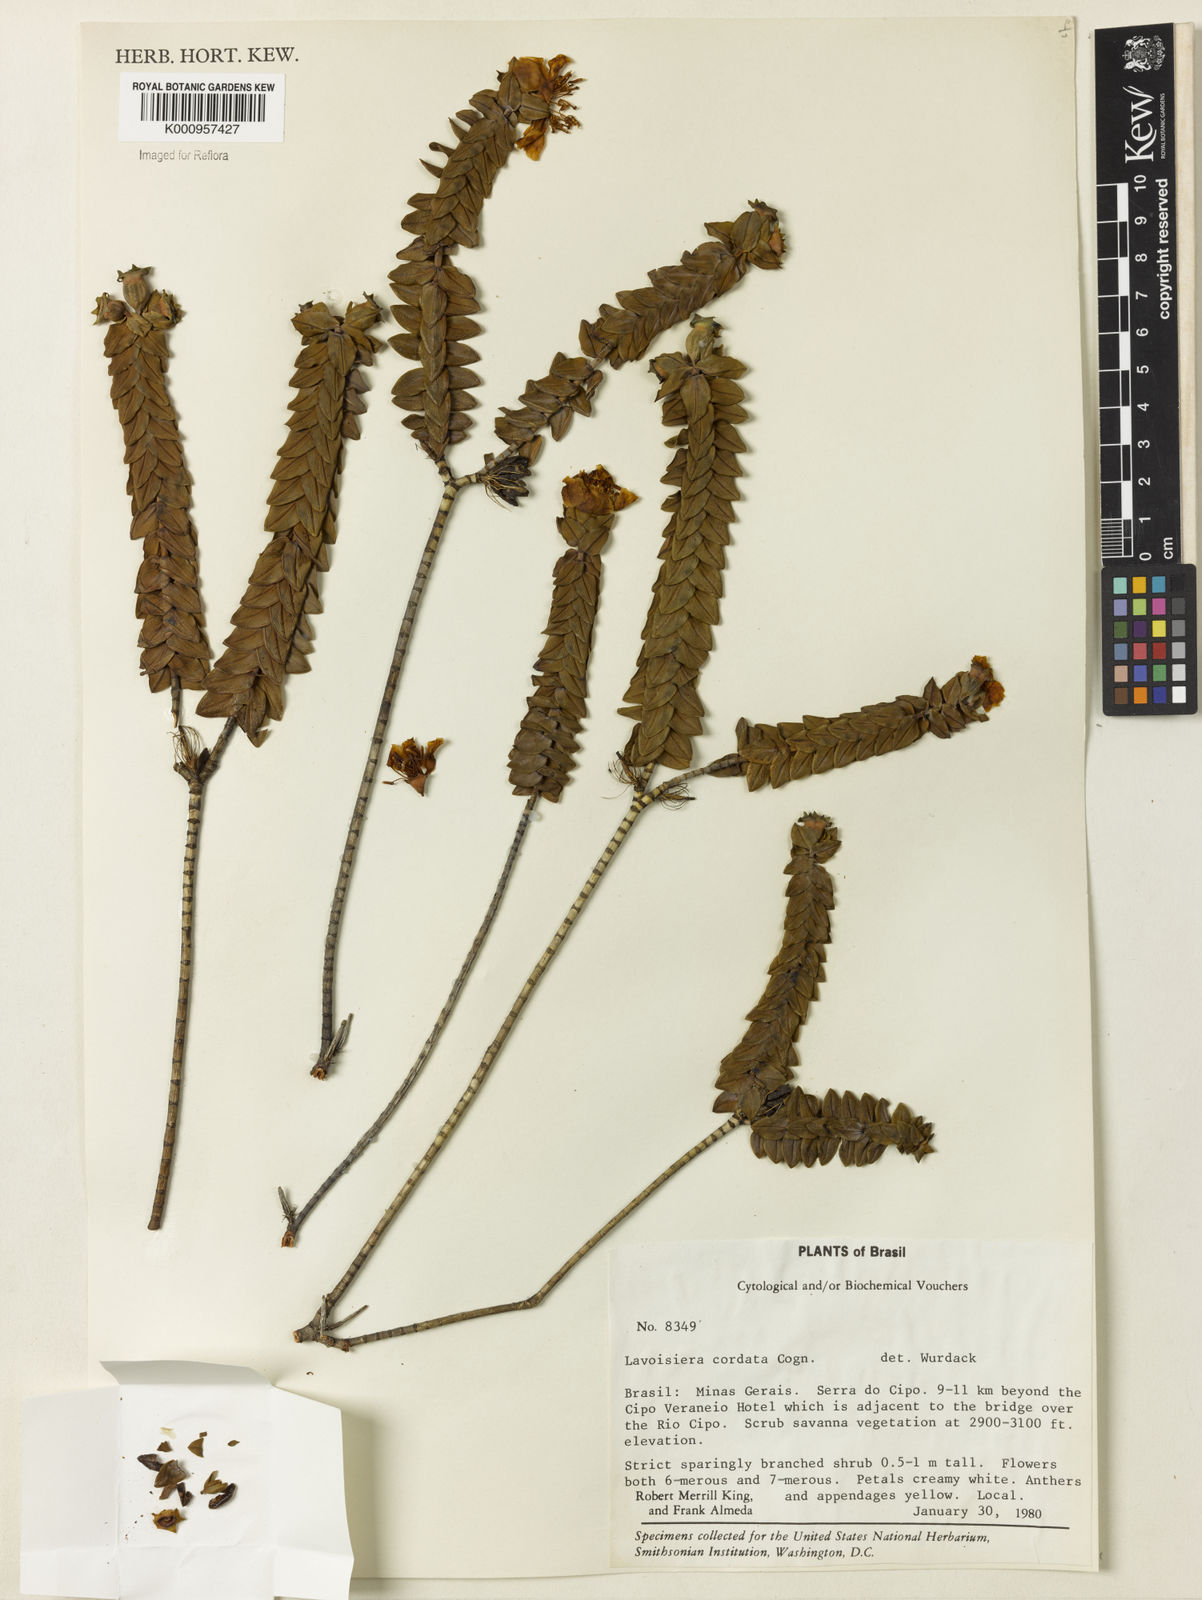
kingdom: Plantae
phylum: Tracheophyta
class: Magnoliopsida
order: Myrtales
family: Melastomataceae
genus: Microlicia
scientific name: Microlicia cordifolia
